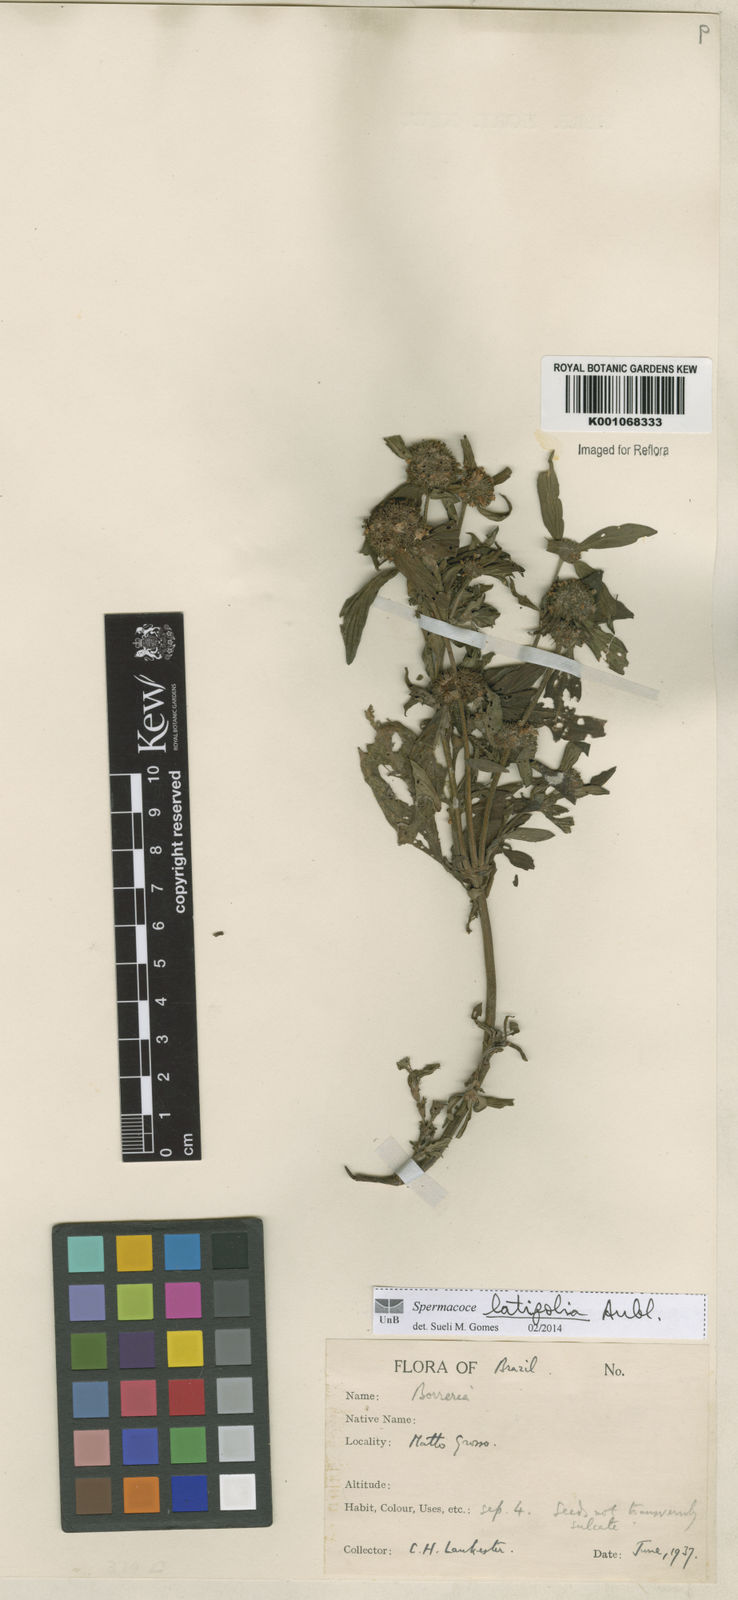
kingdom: Plantae
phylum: Tracheophyta
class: Magnoliopsida
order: Gentianales
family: Rubiaceae
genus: Spermacoce
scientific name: Spermacoce
